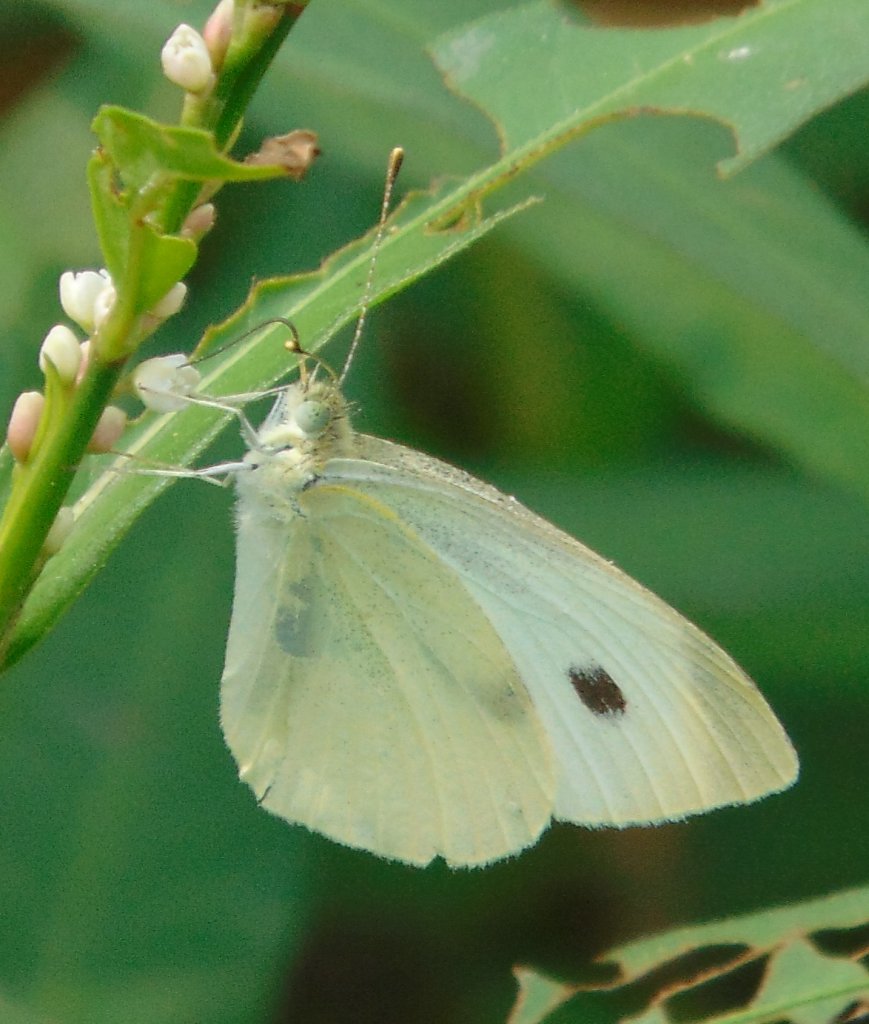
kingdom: Animalia
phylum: Arthropoda
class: Insecta
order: Lepidoptera
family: Pieridae
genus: Pieris
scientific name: Pieris rapae
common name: Cabbage White
